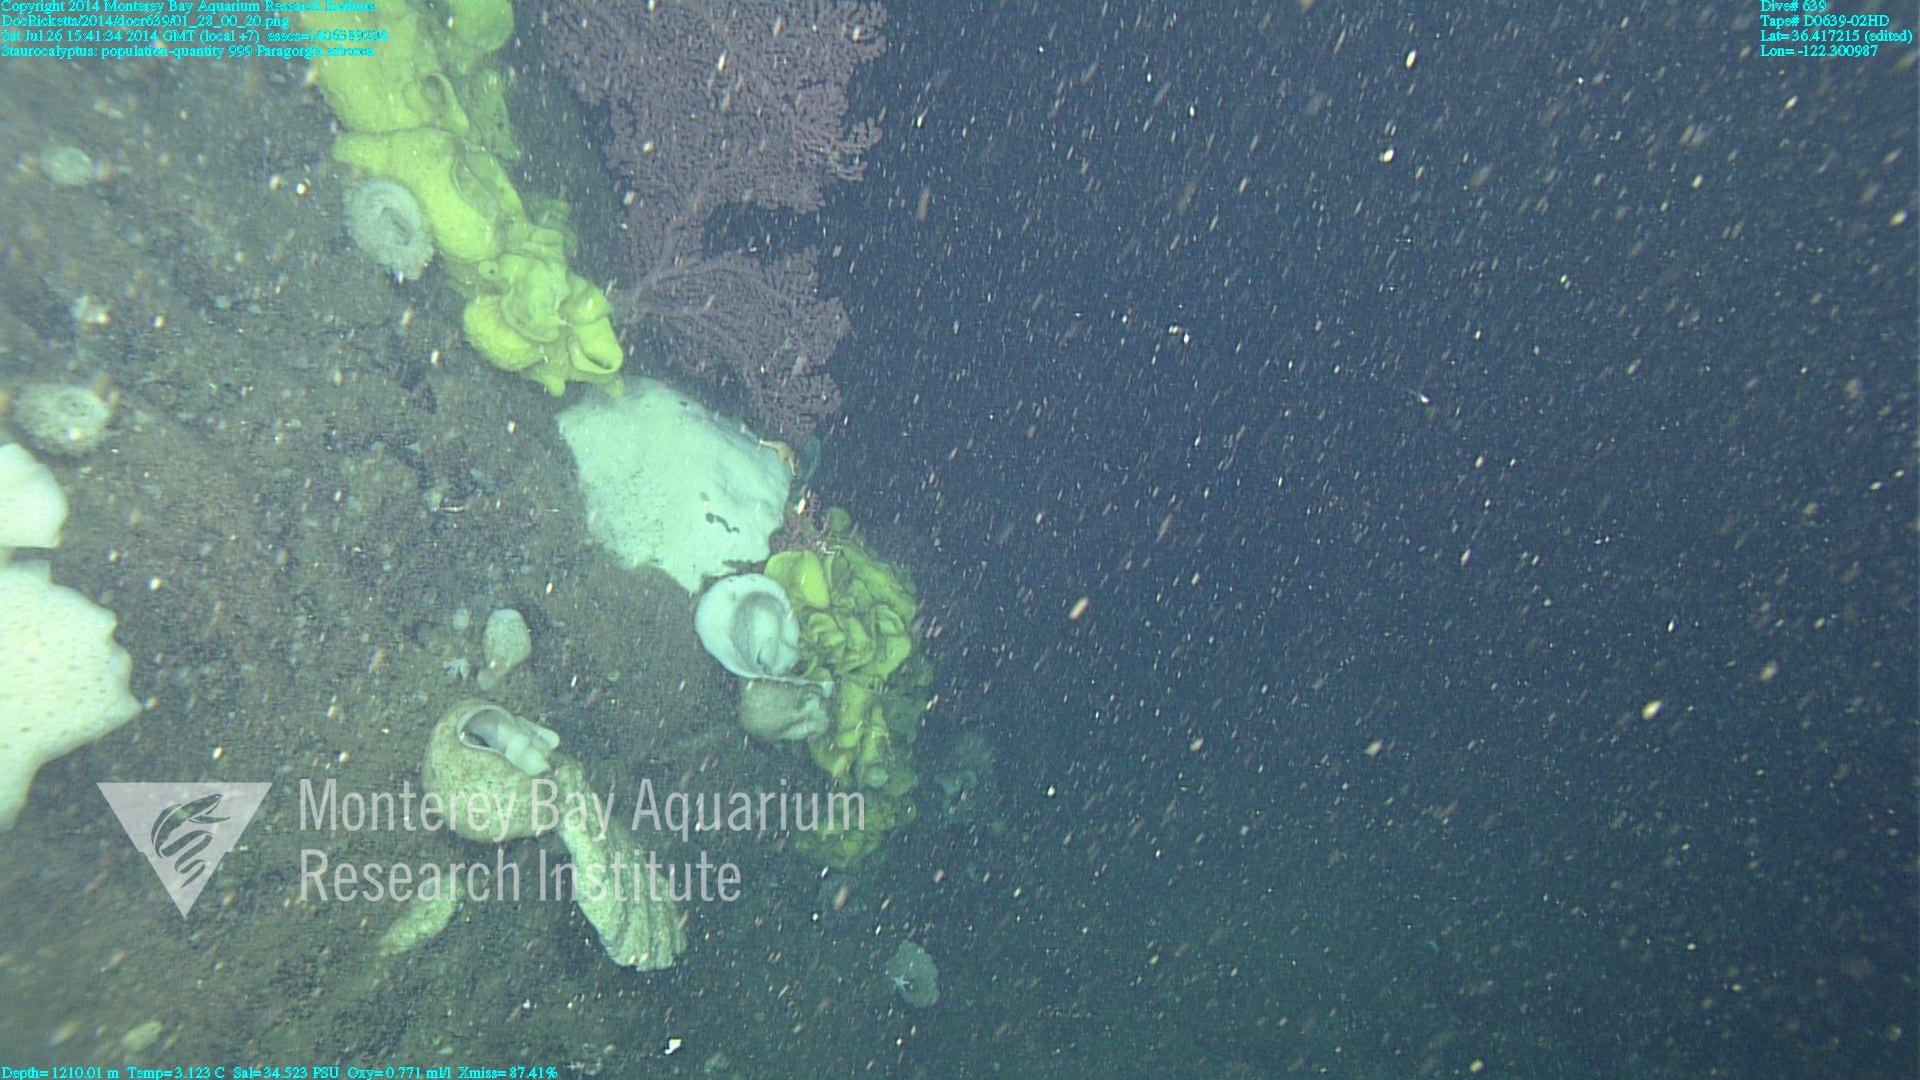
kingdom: Animalia
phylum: Cnidaria
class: Anthozoa
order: Scleralcyonacea
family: Coralliidae
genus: Paragorgia
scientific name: Paragorgia arborea
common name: Bubble gum coral
